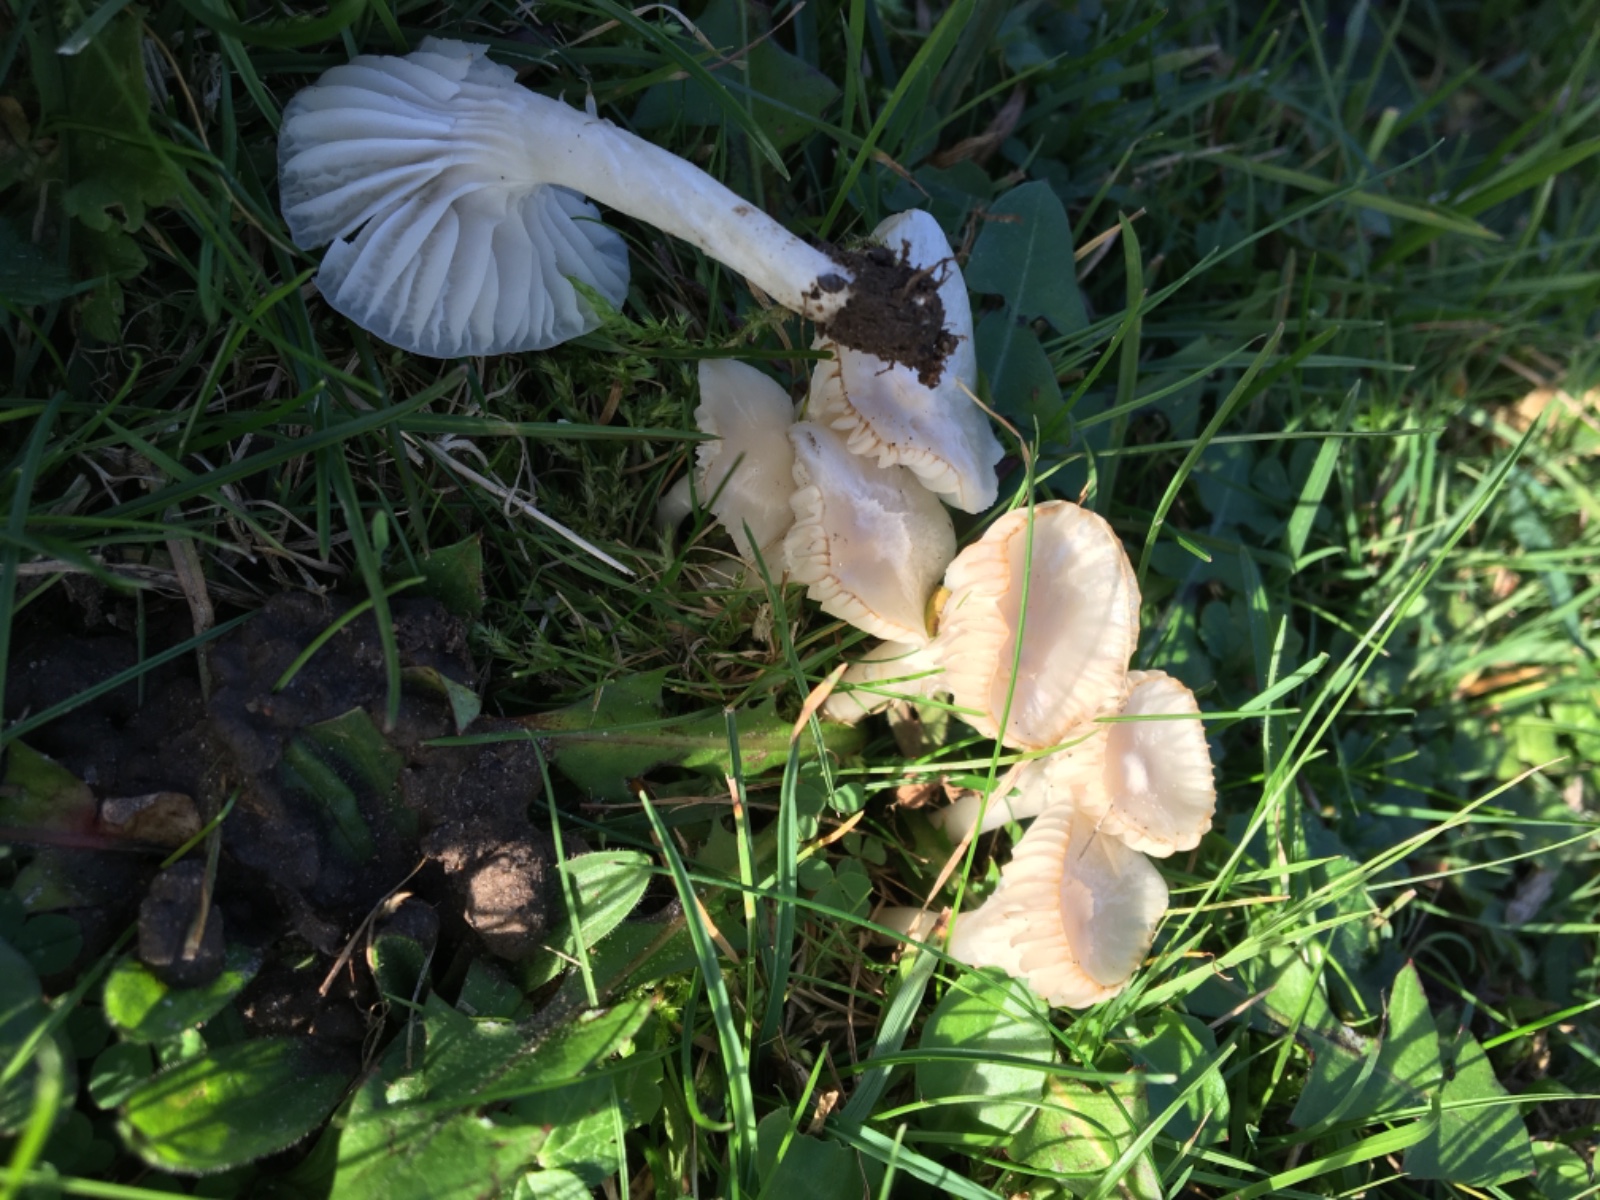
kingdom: Fungi
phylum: Basidiomycota
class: Agaricomycetes
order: Agaricales
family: Hygrophoraceae
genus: Cuphophyllus
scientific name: Cuphophyllus virgineus
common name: snehvid vokshat
